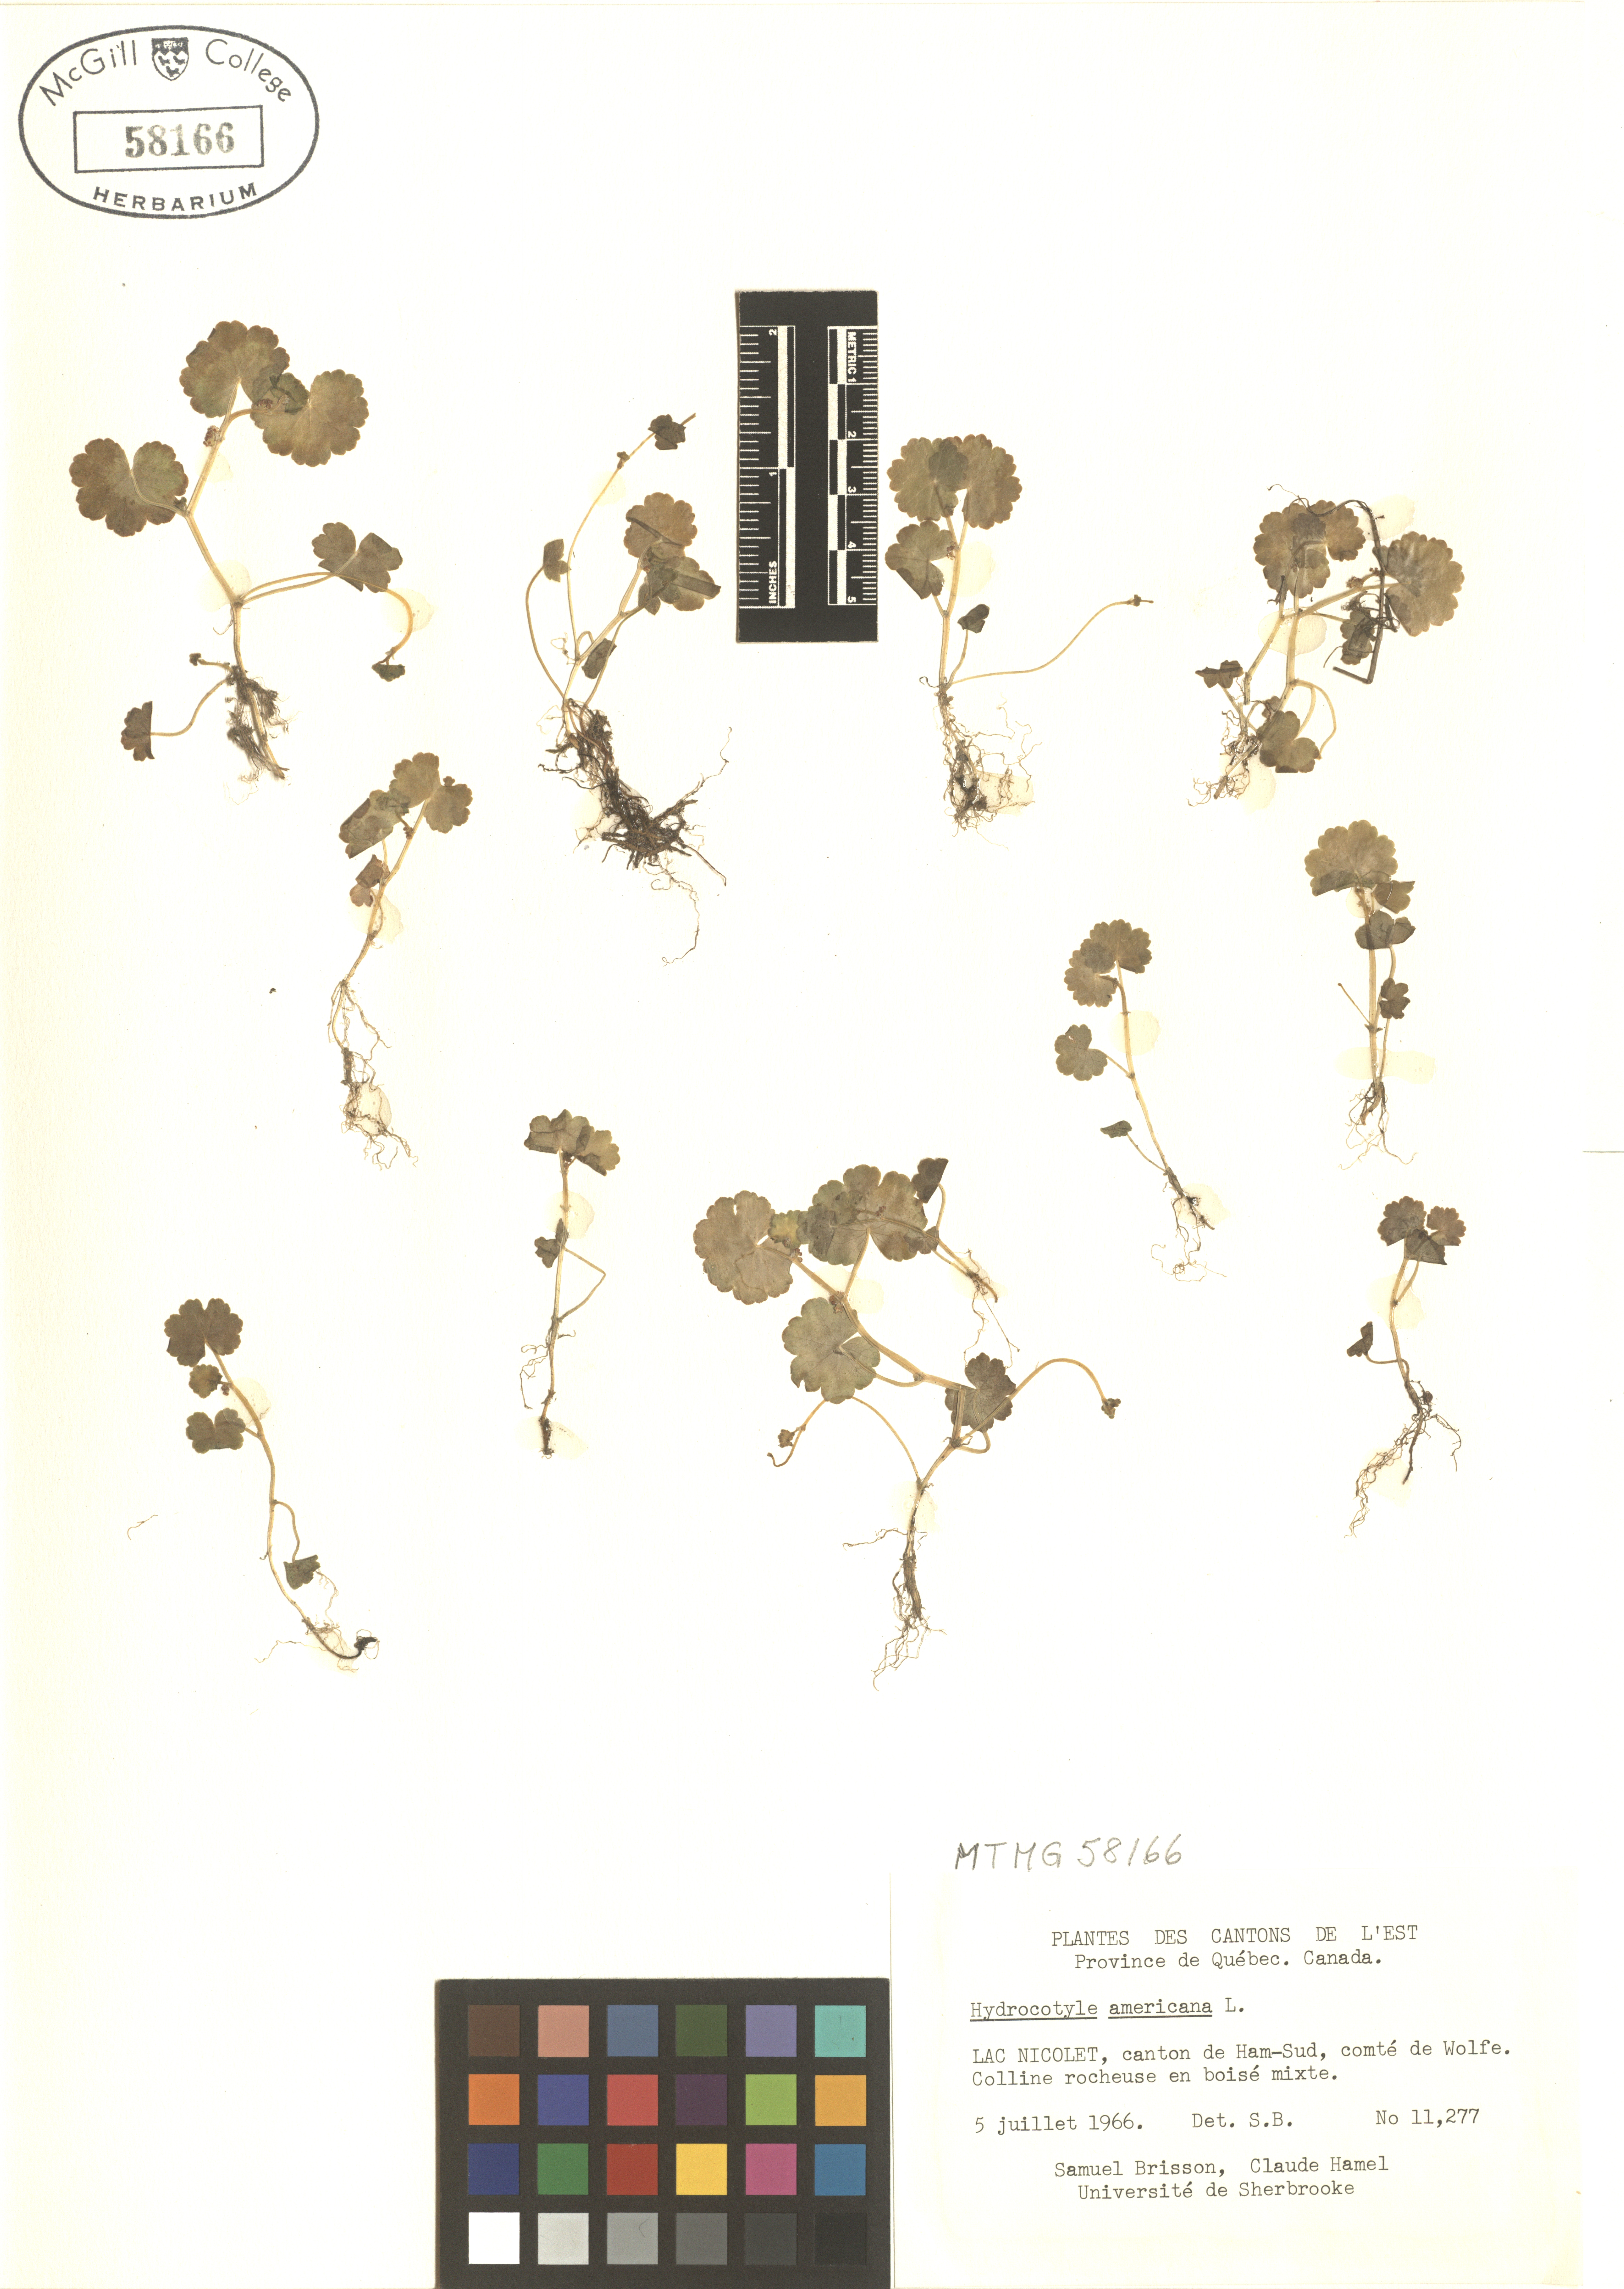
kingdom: Plantae
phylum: Tracheophyta
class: Magnoliopsida
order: Apiales
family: Araliaceae
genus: Hydrocotyle
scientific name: Hydrocotyle americana
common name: American water-pennywort
